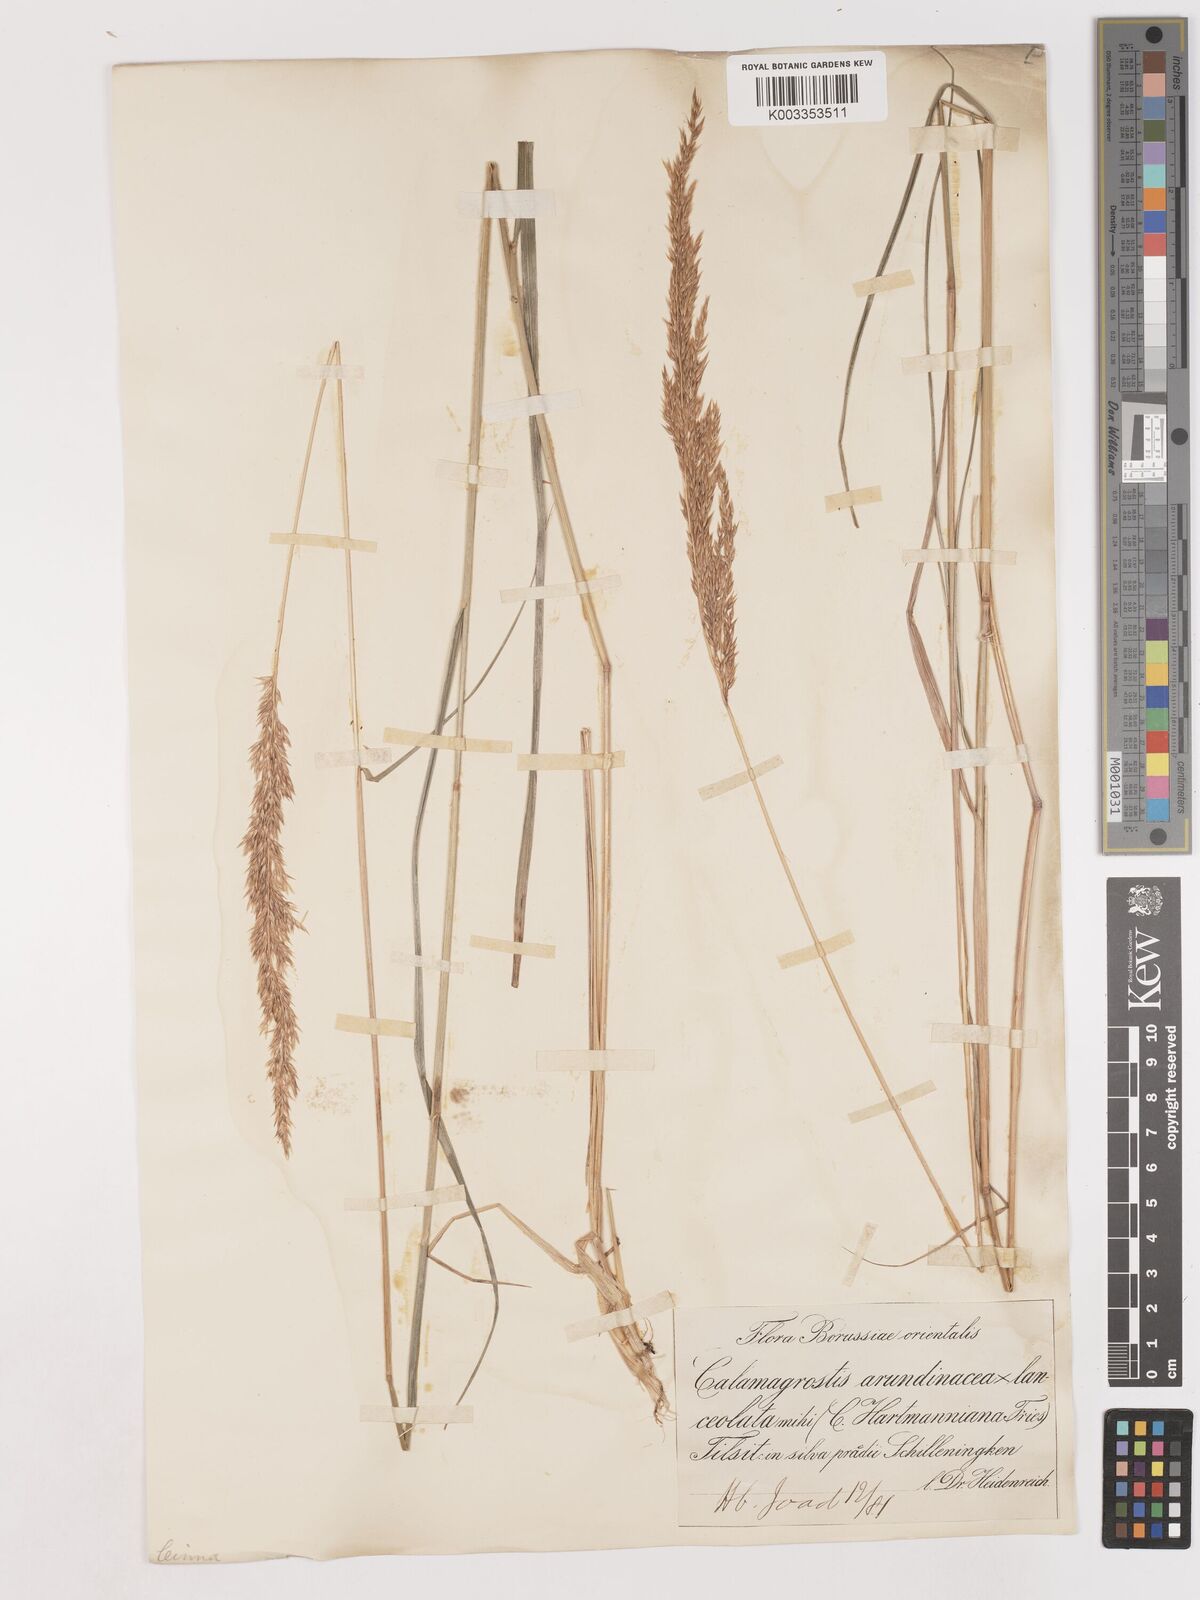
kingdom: Plantae
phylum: Tracheophyta
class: Liliopsida
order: Poales
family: Poaceae
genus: Calamagrostis
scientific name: Calamagrostis
